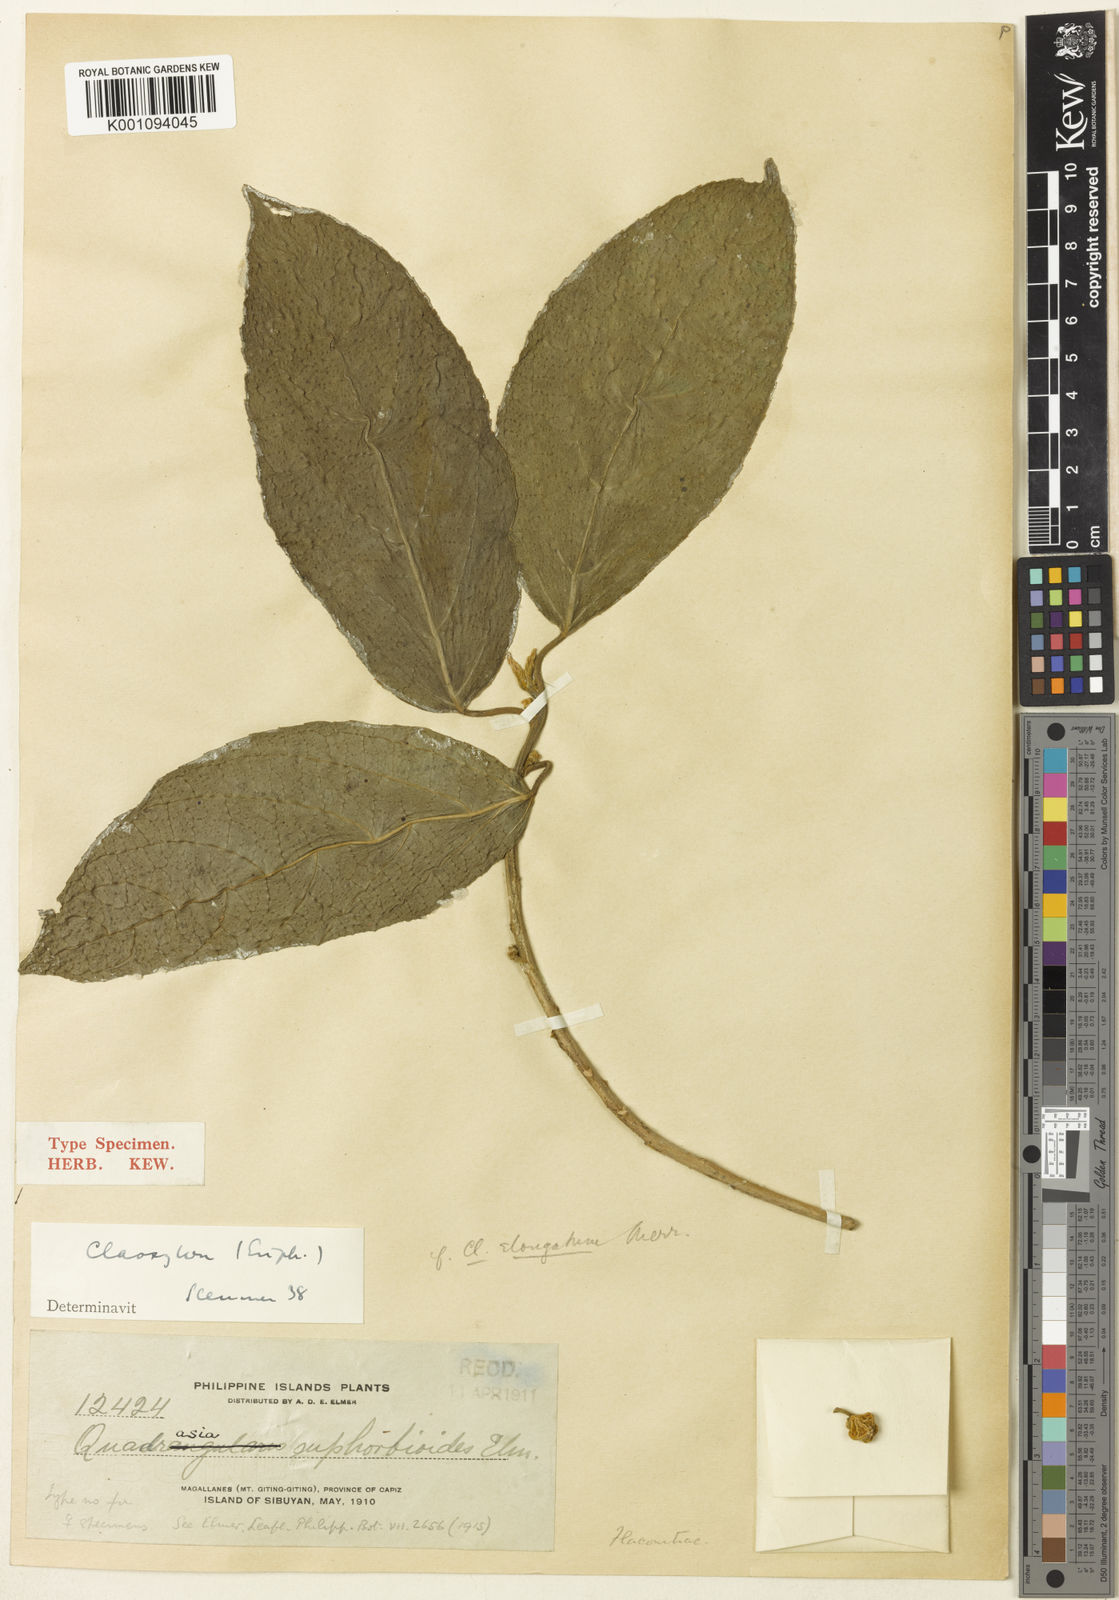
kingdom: Plantae
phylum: Tracheophyta
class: Magnoliopsida
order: Malpighiales
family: Euphorbiaceae
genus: Claoxylon
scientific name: Claoxylon albicans
